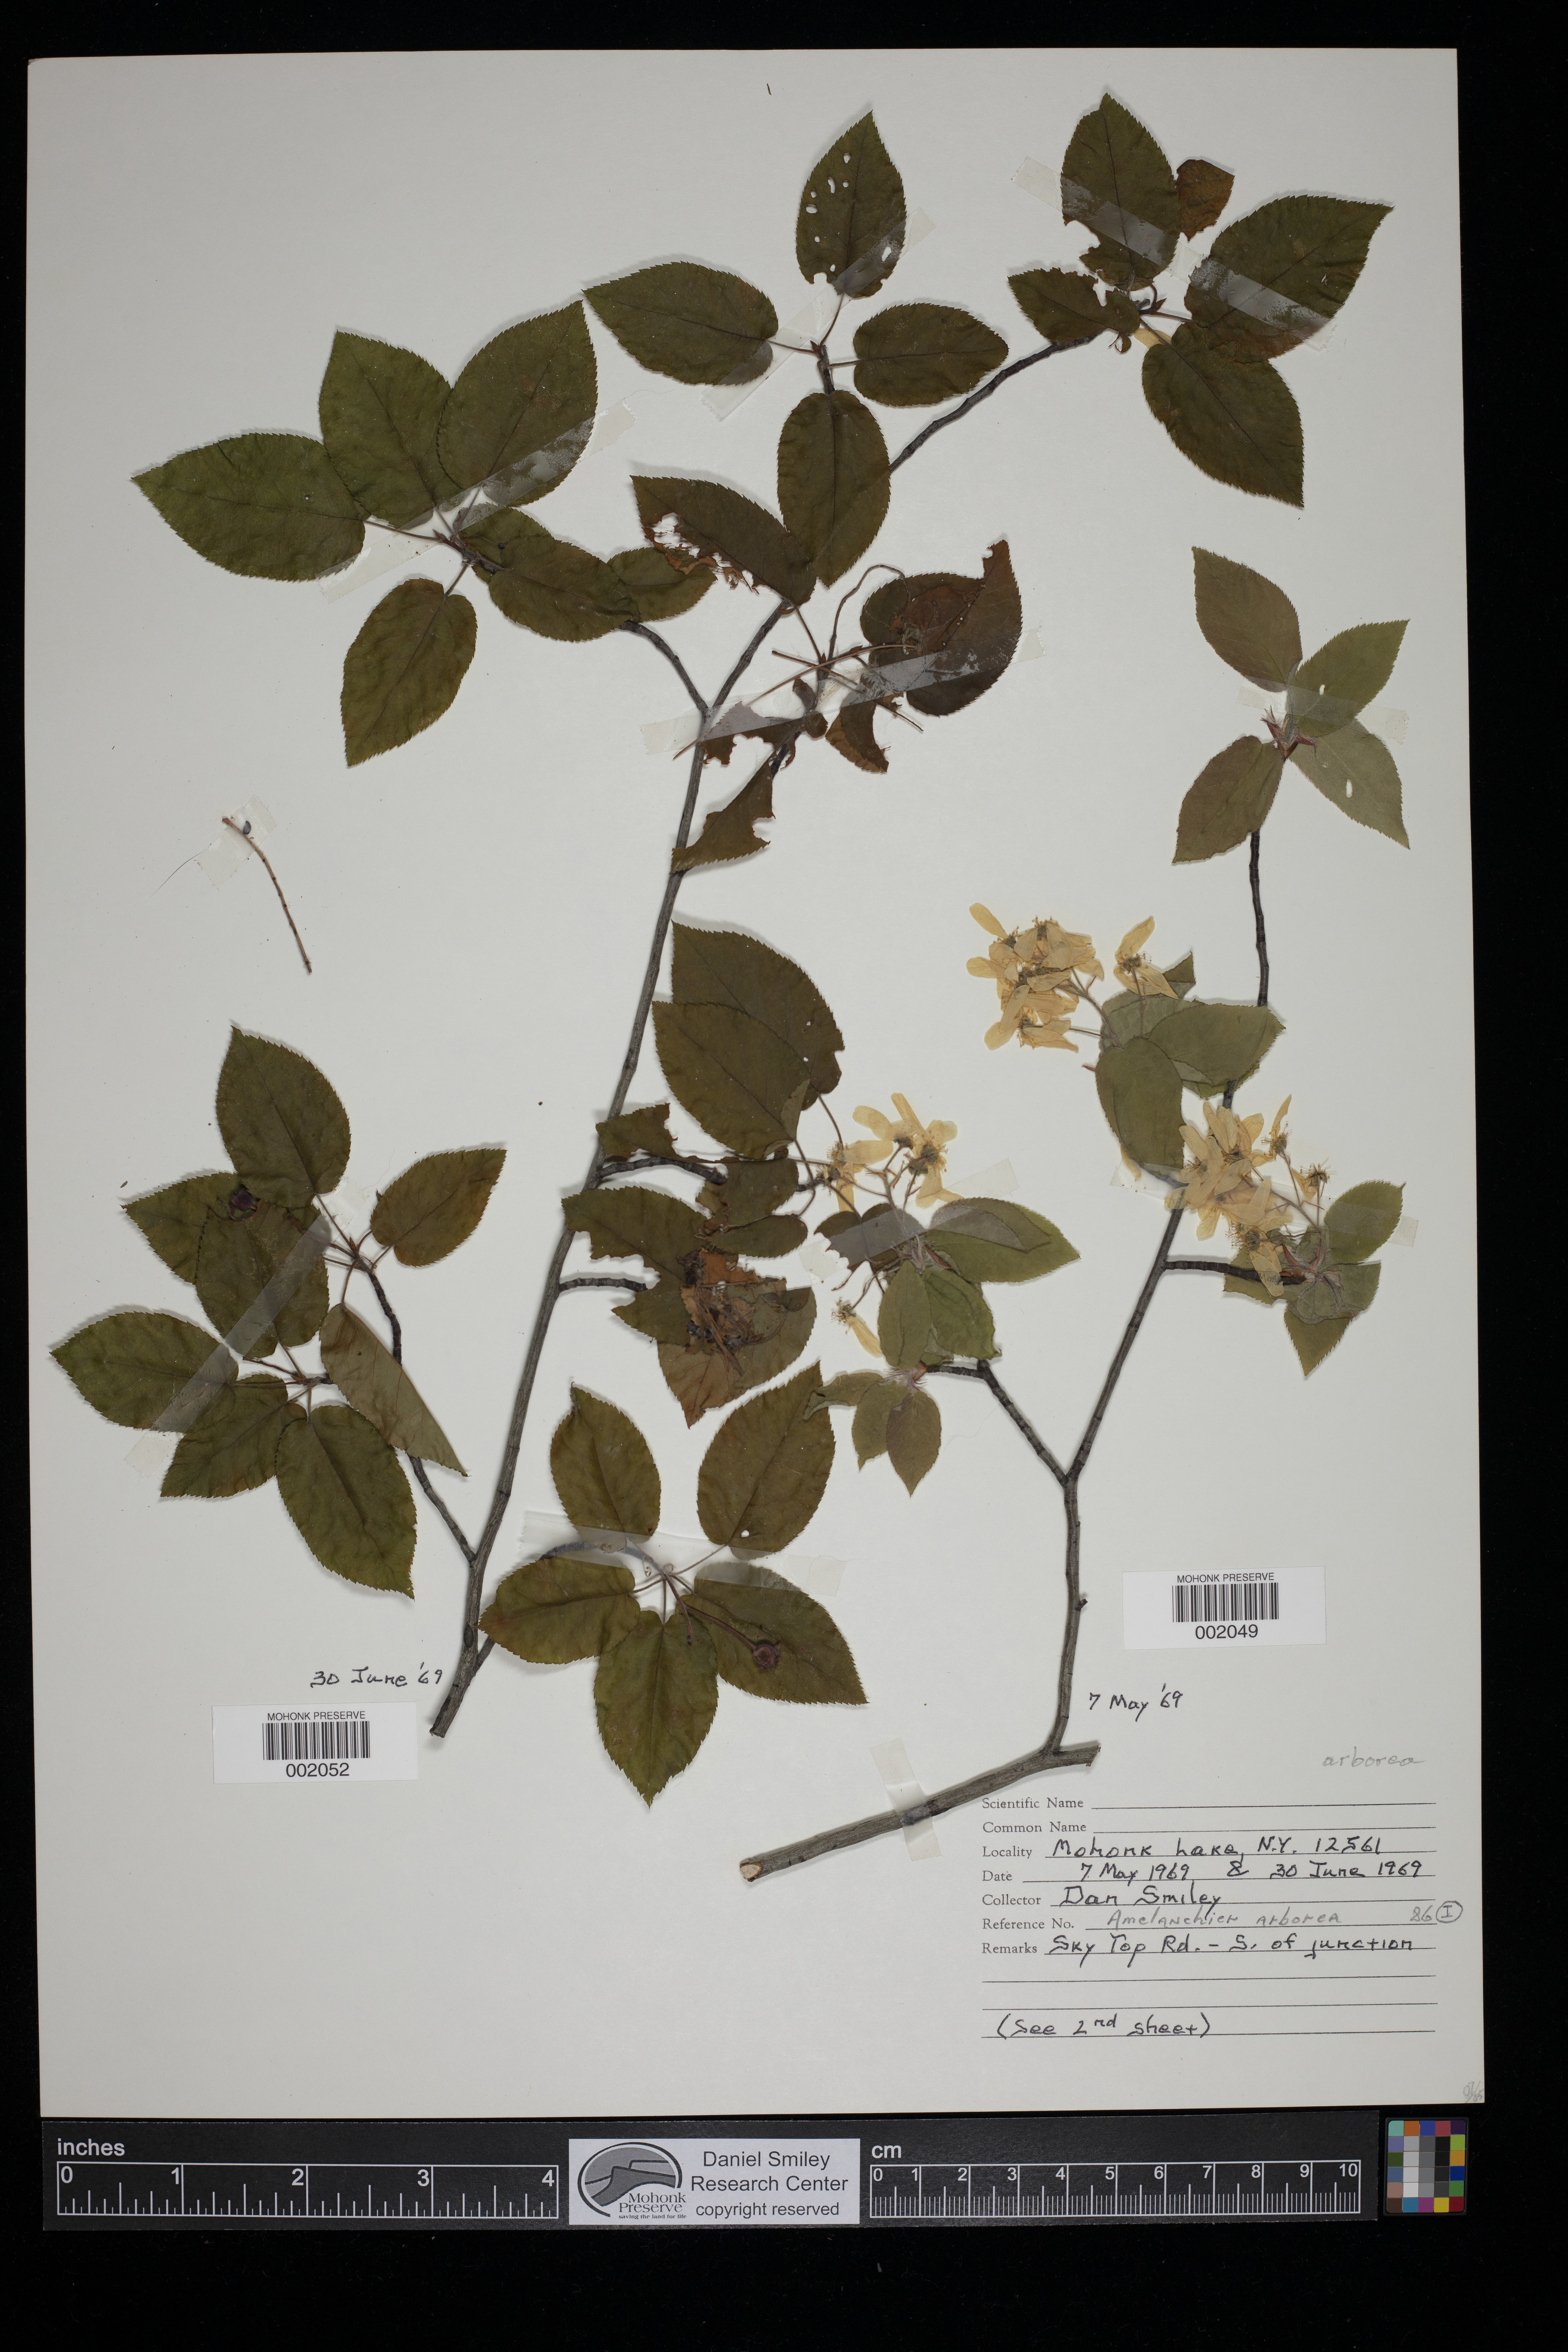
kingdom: Plantae
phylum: Tracheophyta
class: Magnoliopsida
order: Rosales
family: Rosaceae
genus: Amelanchier
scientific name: Amelanchier arborea
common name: Downy serviceberry
